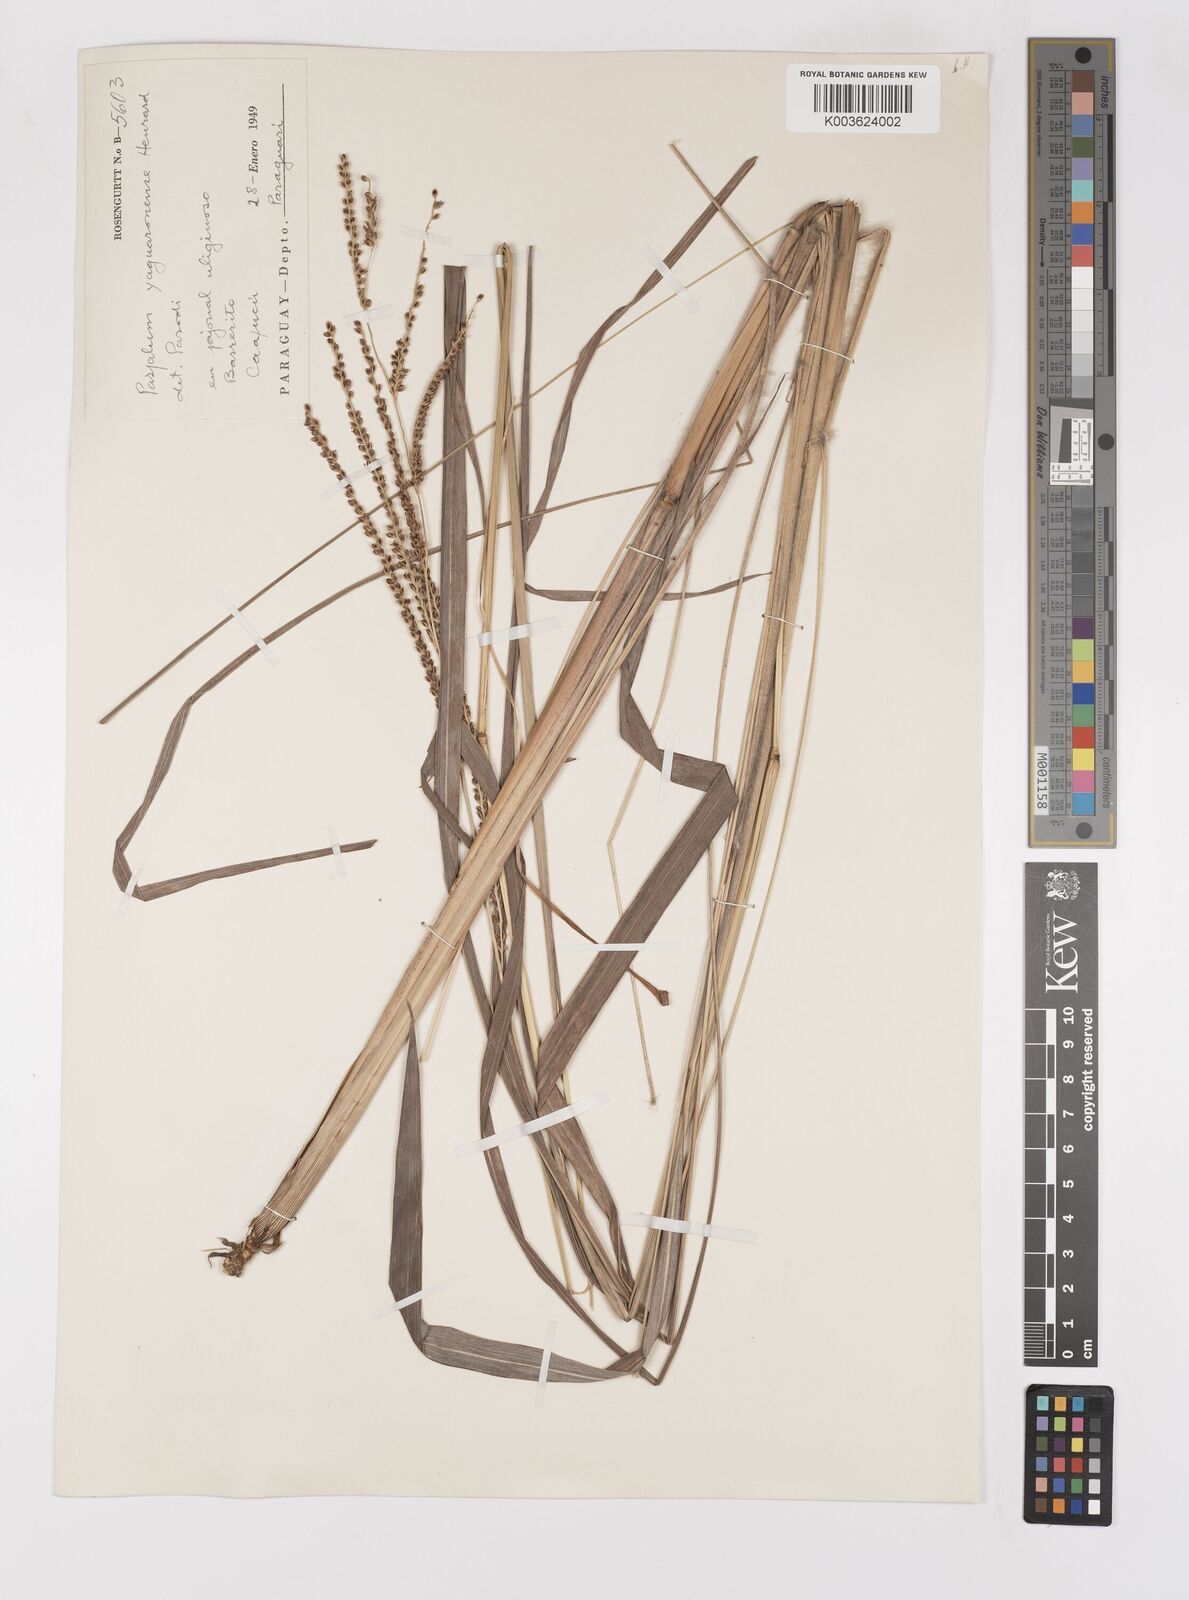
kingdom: Plantae
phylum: Tracheophyta
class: Liliopsida
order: Poales
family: Poaceae
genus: Paspalum
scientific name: Paspalum glaucescens
